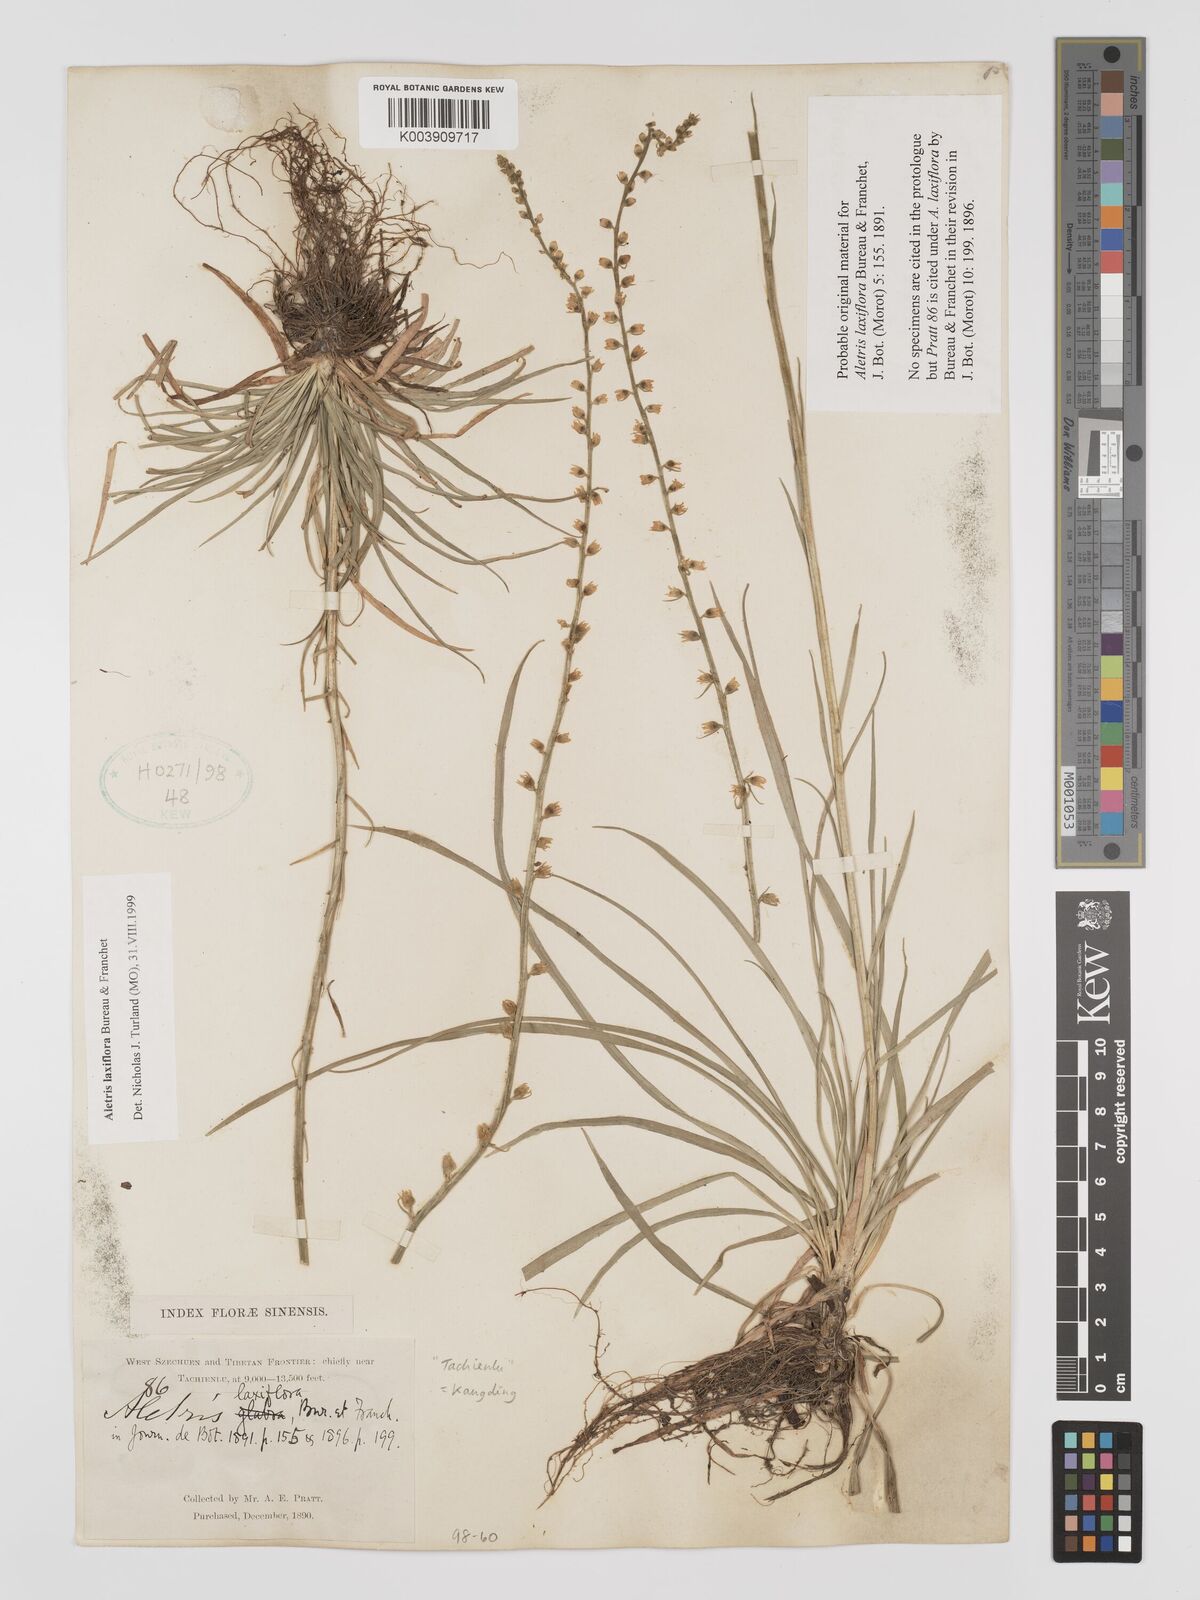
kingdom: Plantae
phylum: Tracheophyta
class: Liliopsida
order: Dioscoreales
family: Nartheciaceae
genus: Aletris
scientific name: Aletris laxiflora
